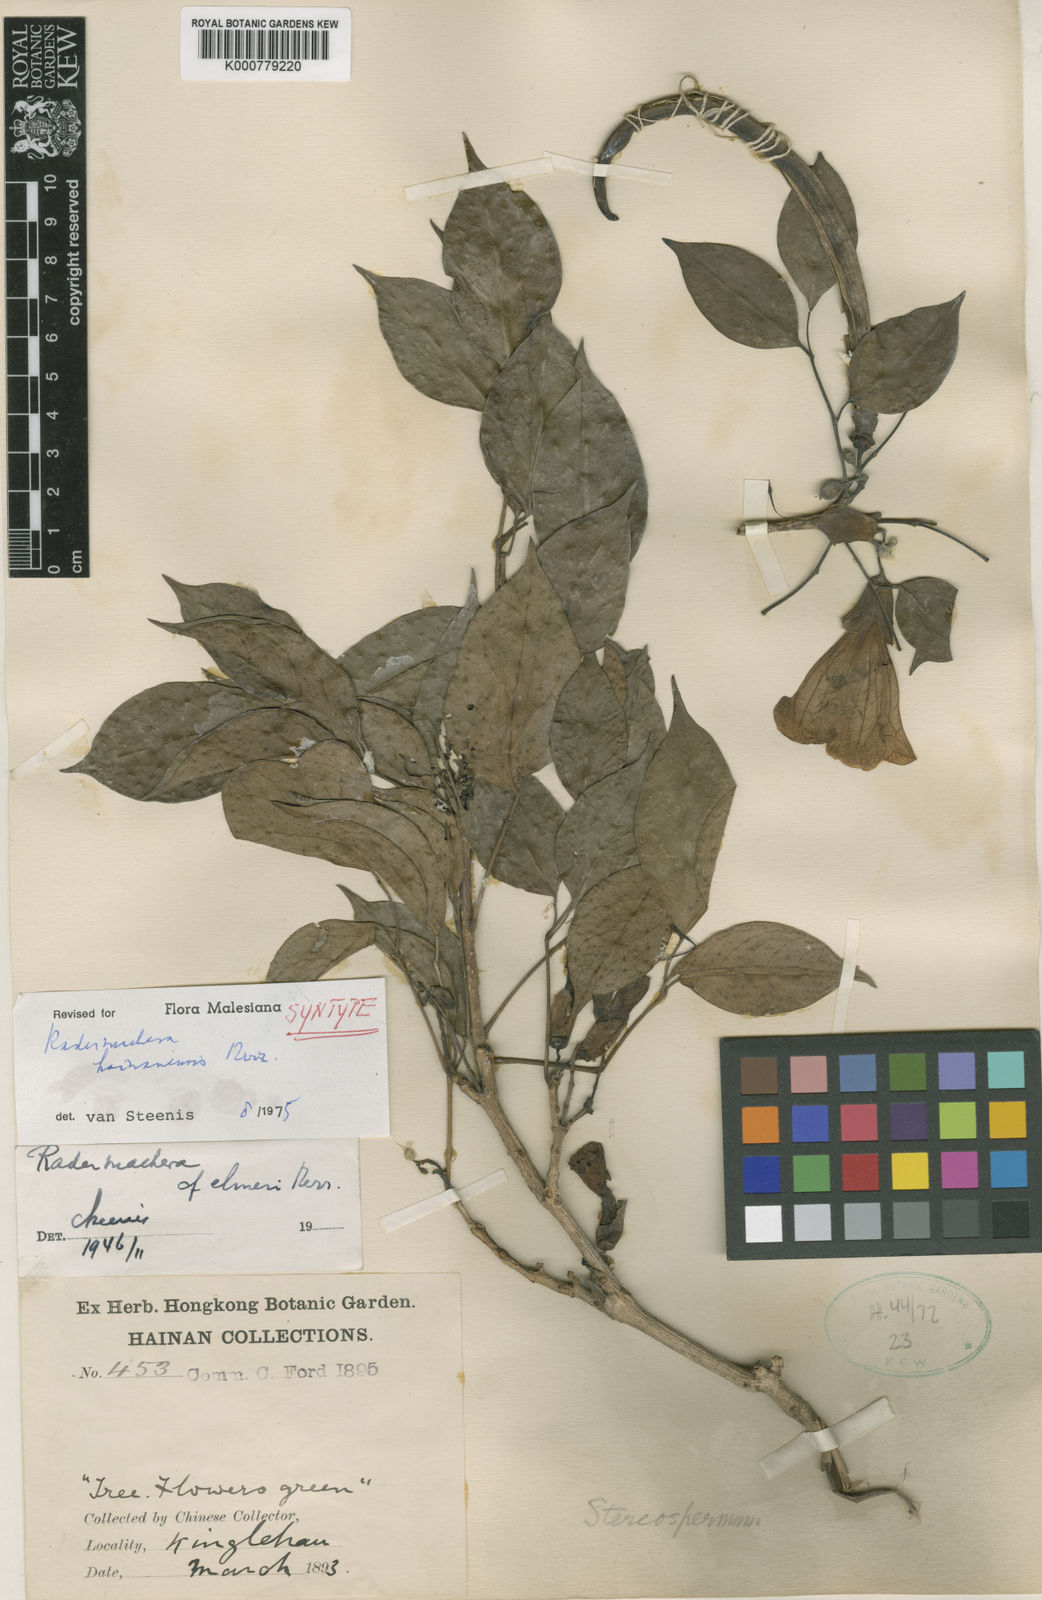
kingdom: Plantae
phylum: Tracheophyta
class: Magnoliopsida
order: Lamiales
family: Bignoniaceae
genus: Radermachera
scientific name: Radermachera hainanensis
